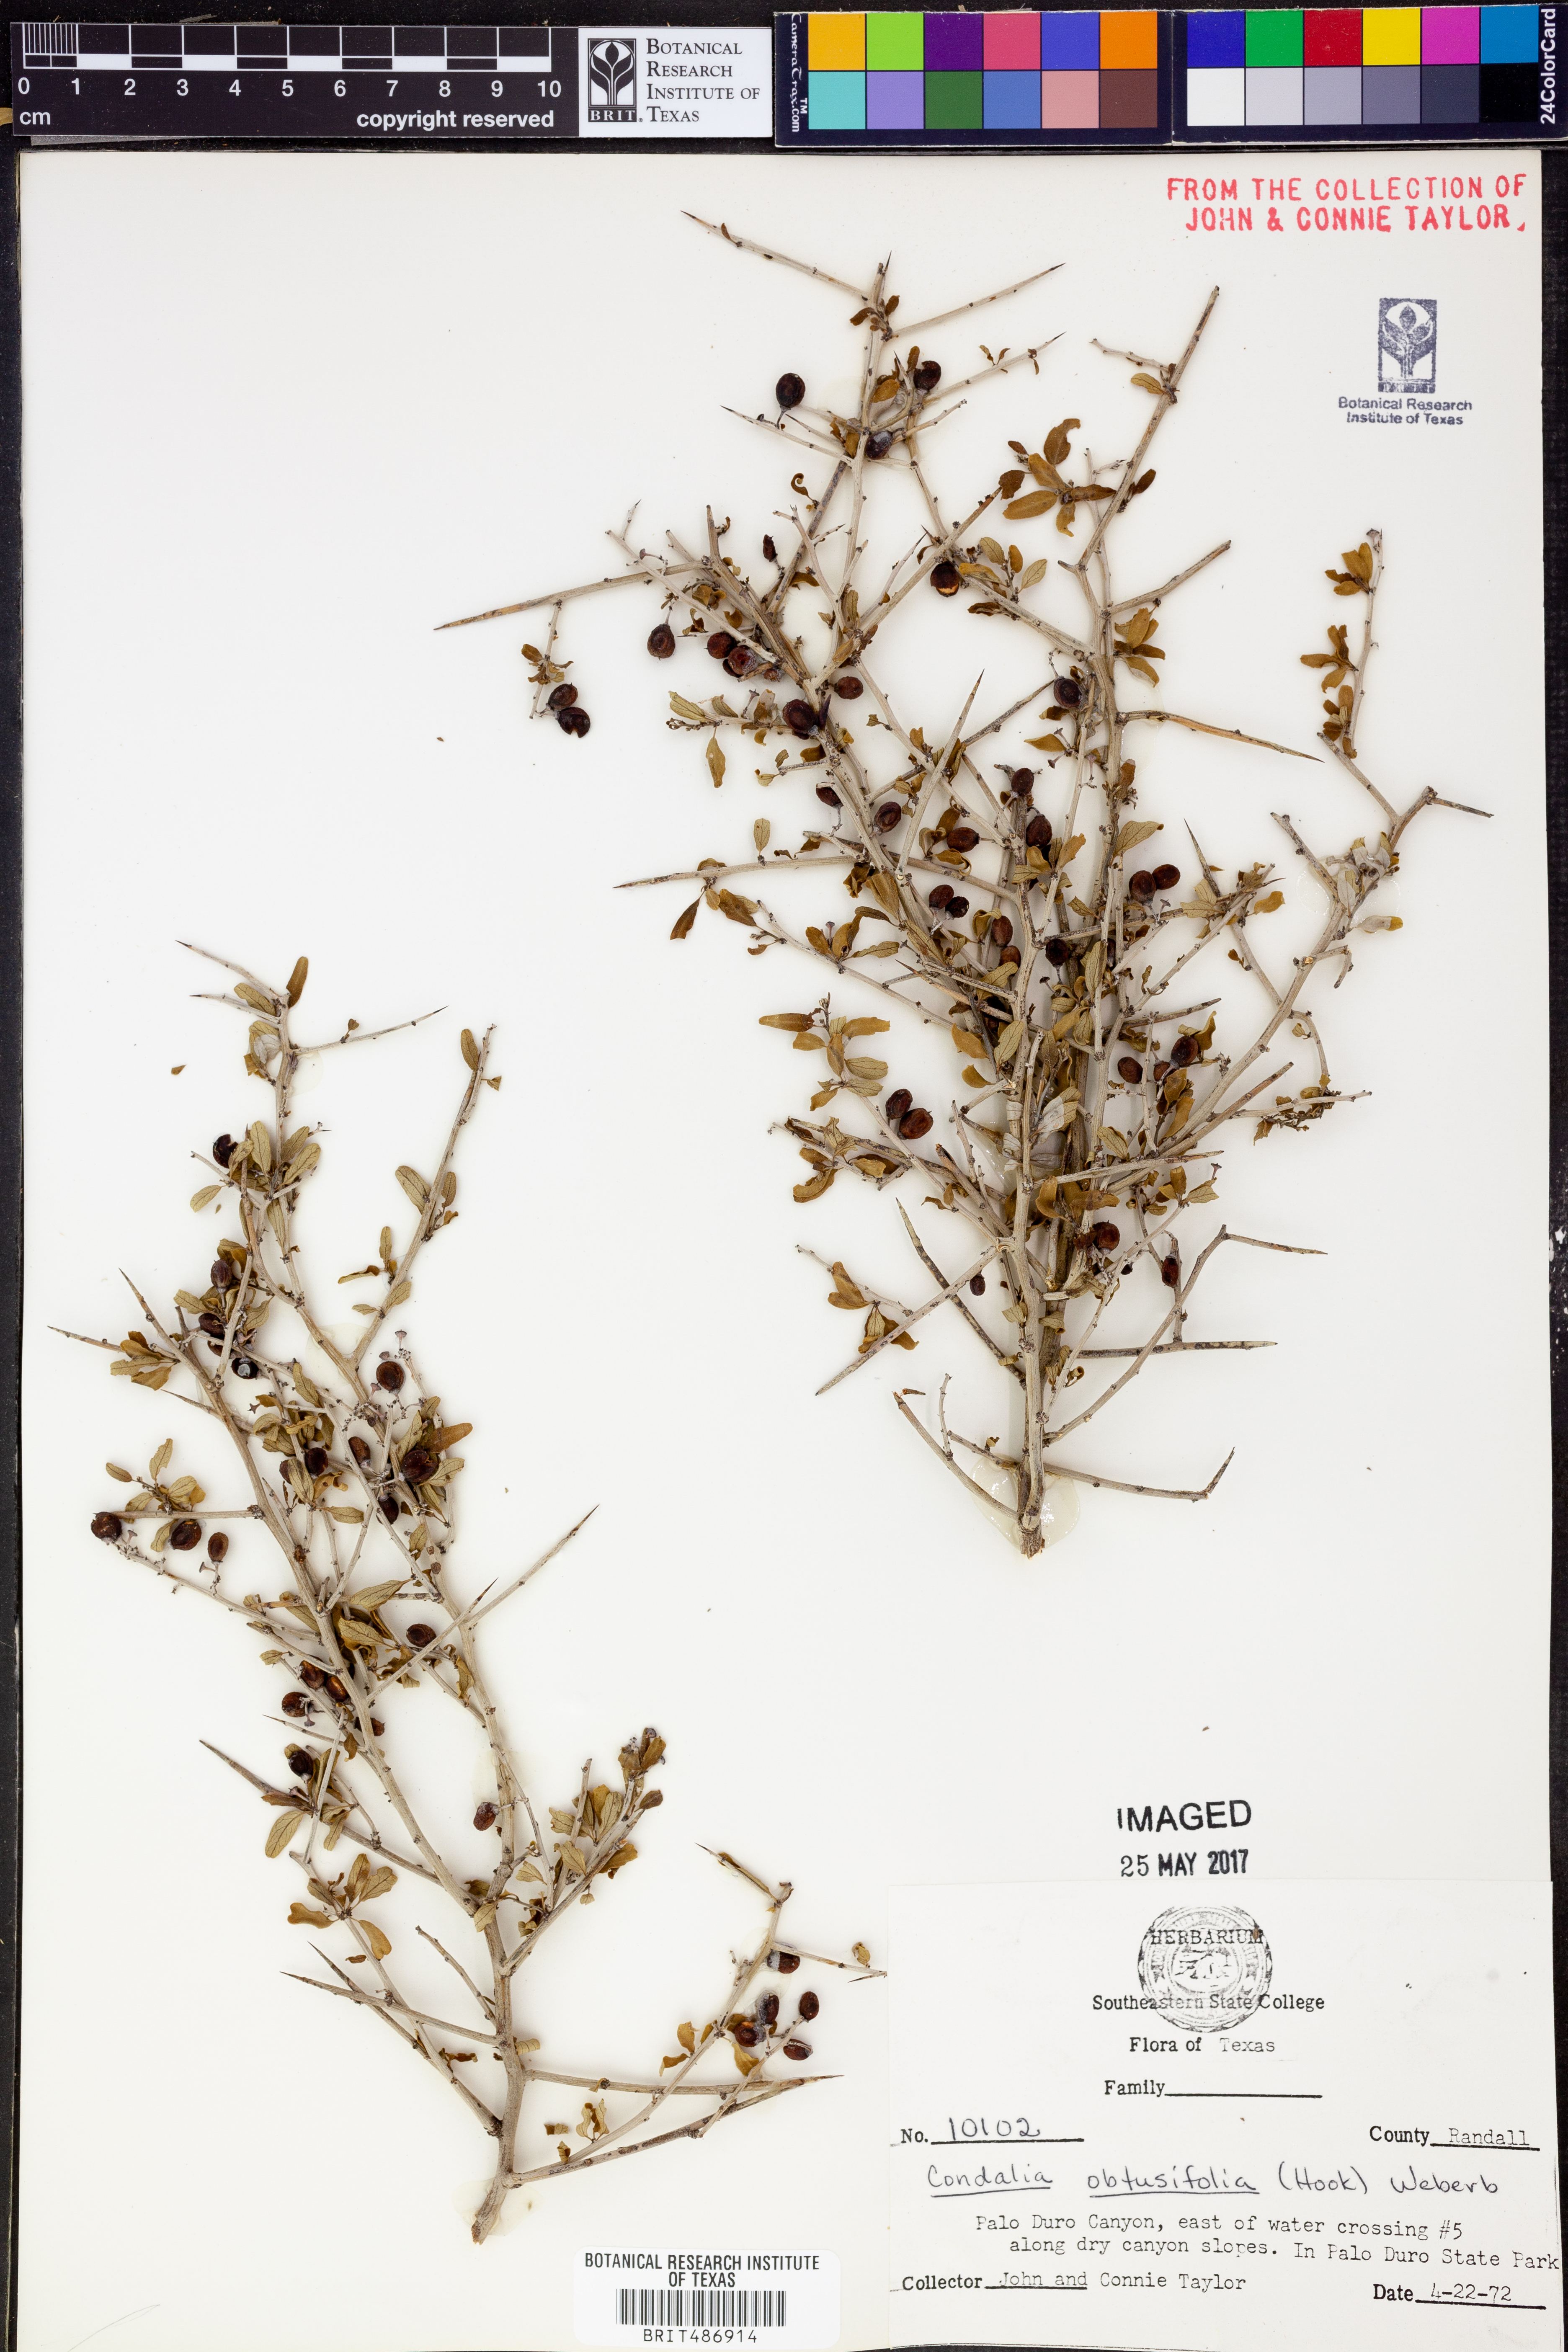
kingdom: Plantae
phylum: Tracheophyta
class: Magnoliopsida
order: Rosales
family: Rhamnaceae
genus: Sarcomphalus
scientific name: Sarcomphalus obtusifolius
